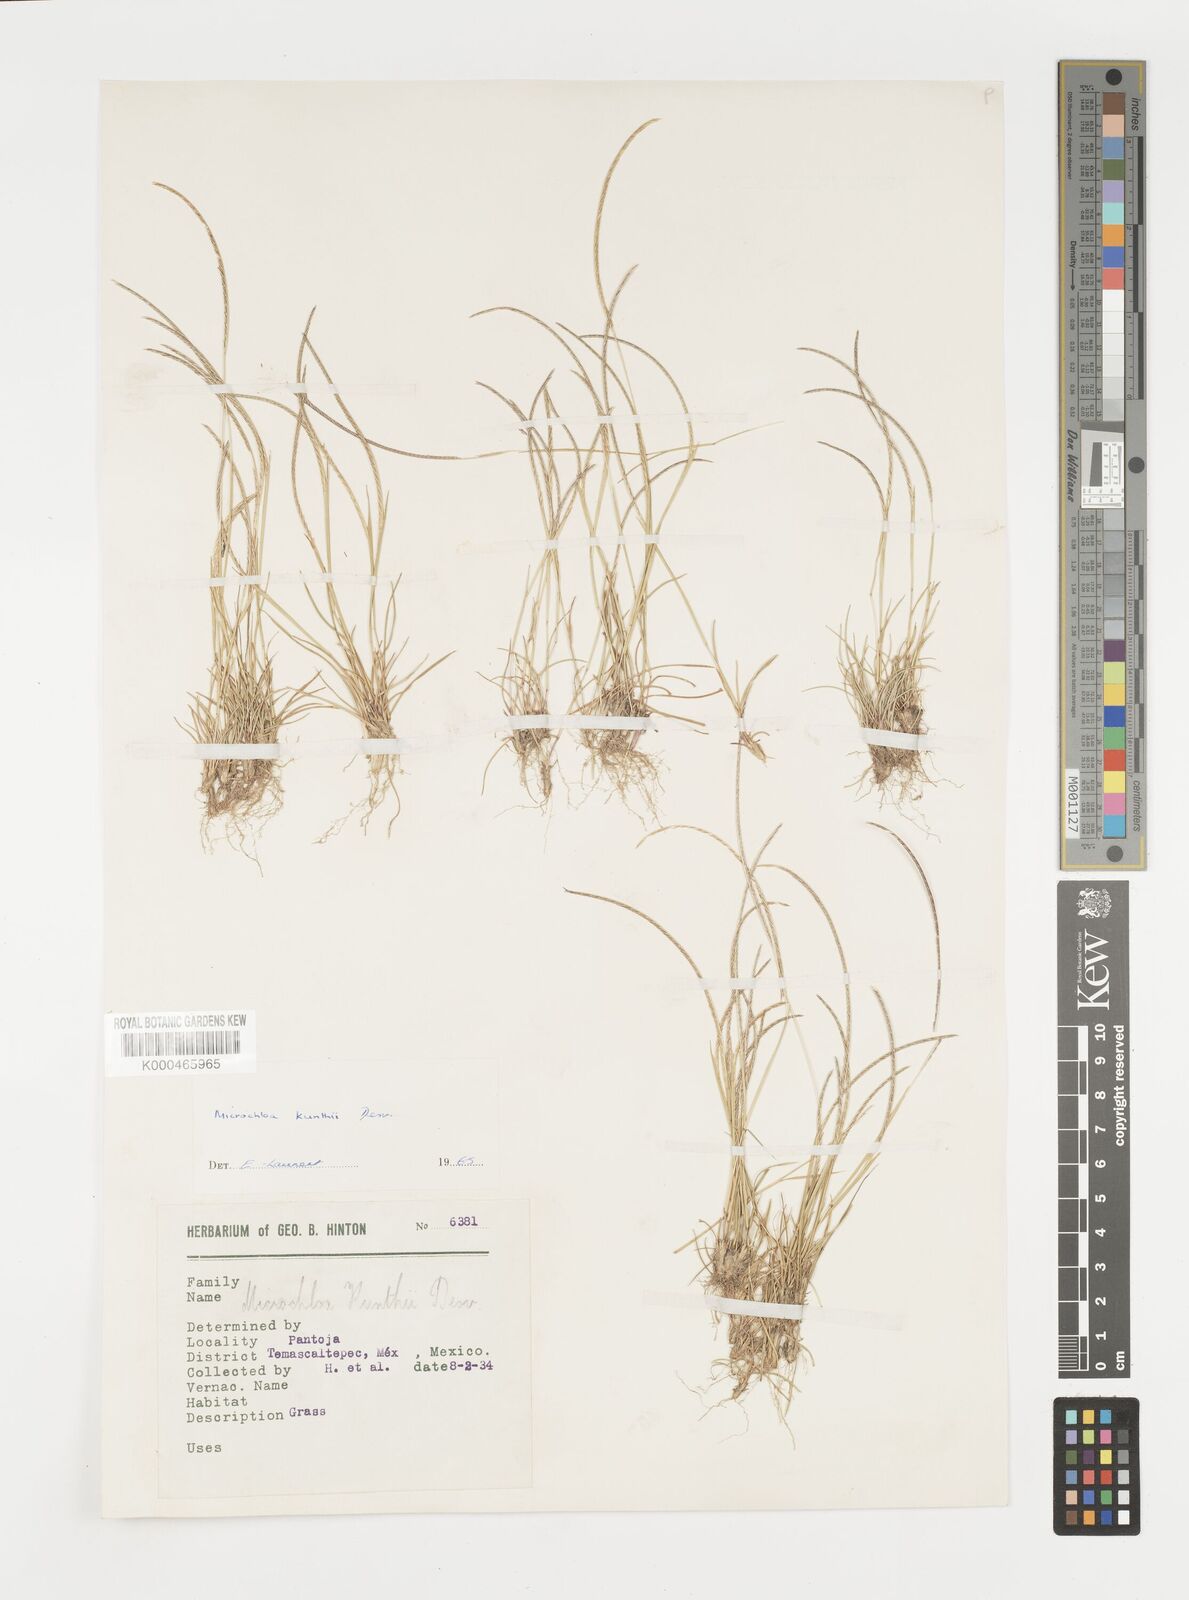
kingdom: Plantae
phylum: Tracheophyta
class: Liliopsida
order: Poales
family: Poaceae
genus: Microchloa
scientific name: Microchloa kunthii
